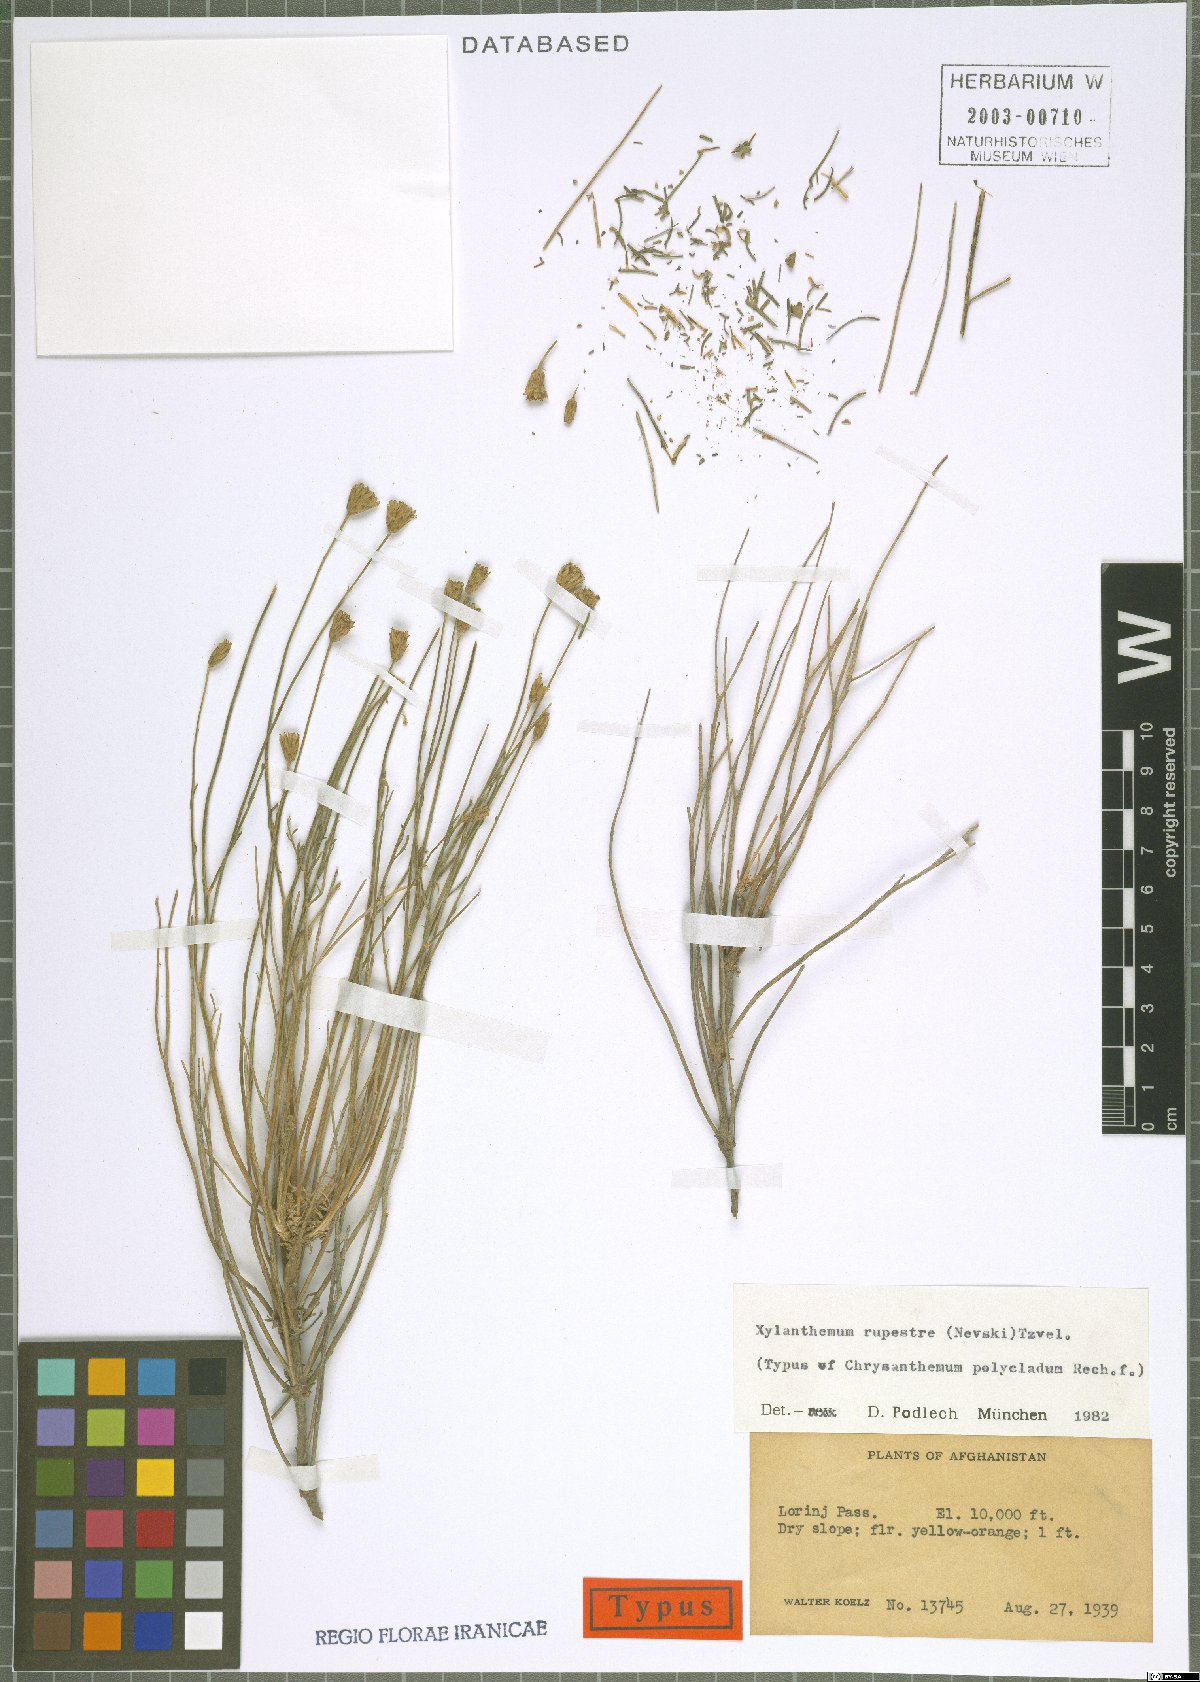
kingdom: Plantae
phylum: Tracheophyta
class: Magnoliopsida
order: Asterales
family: Asteraceae
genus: Xylanthemum
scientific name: Xylanthemum fisherae
